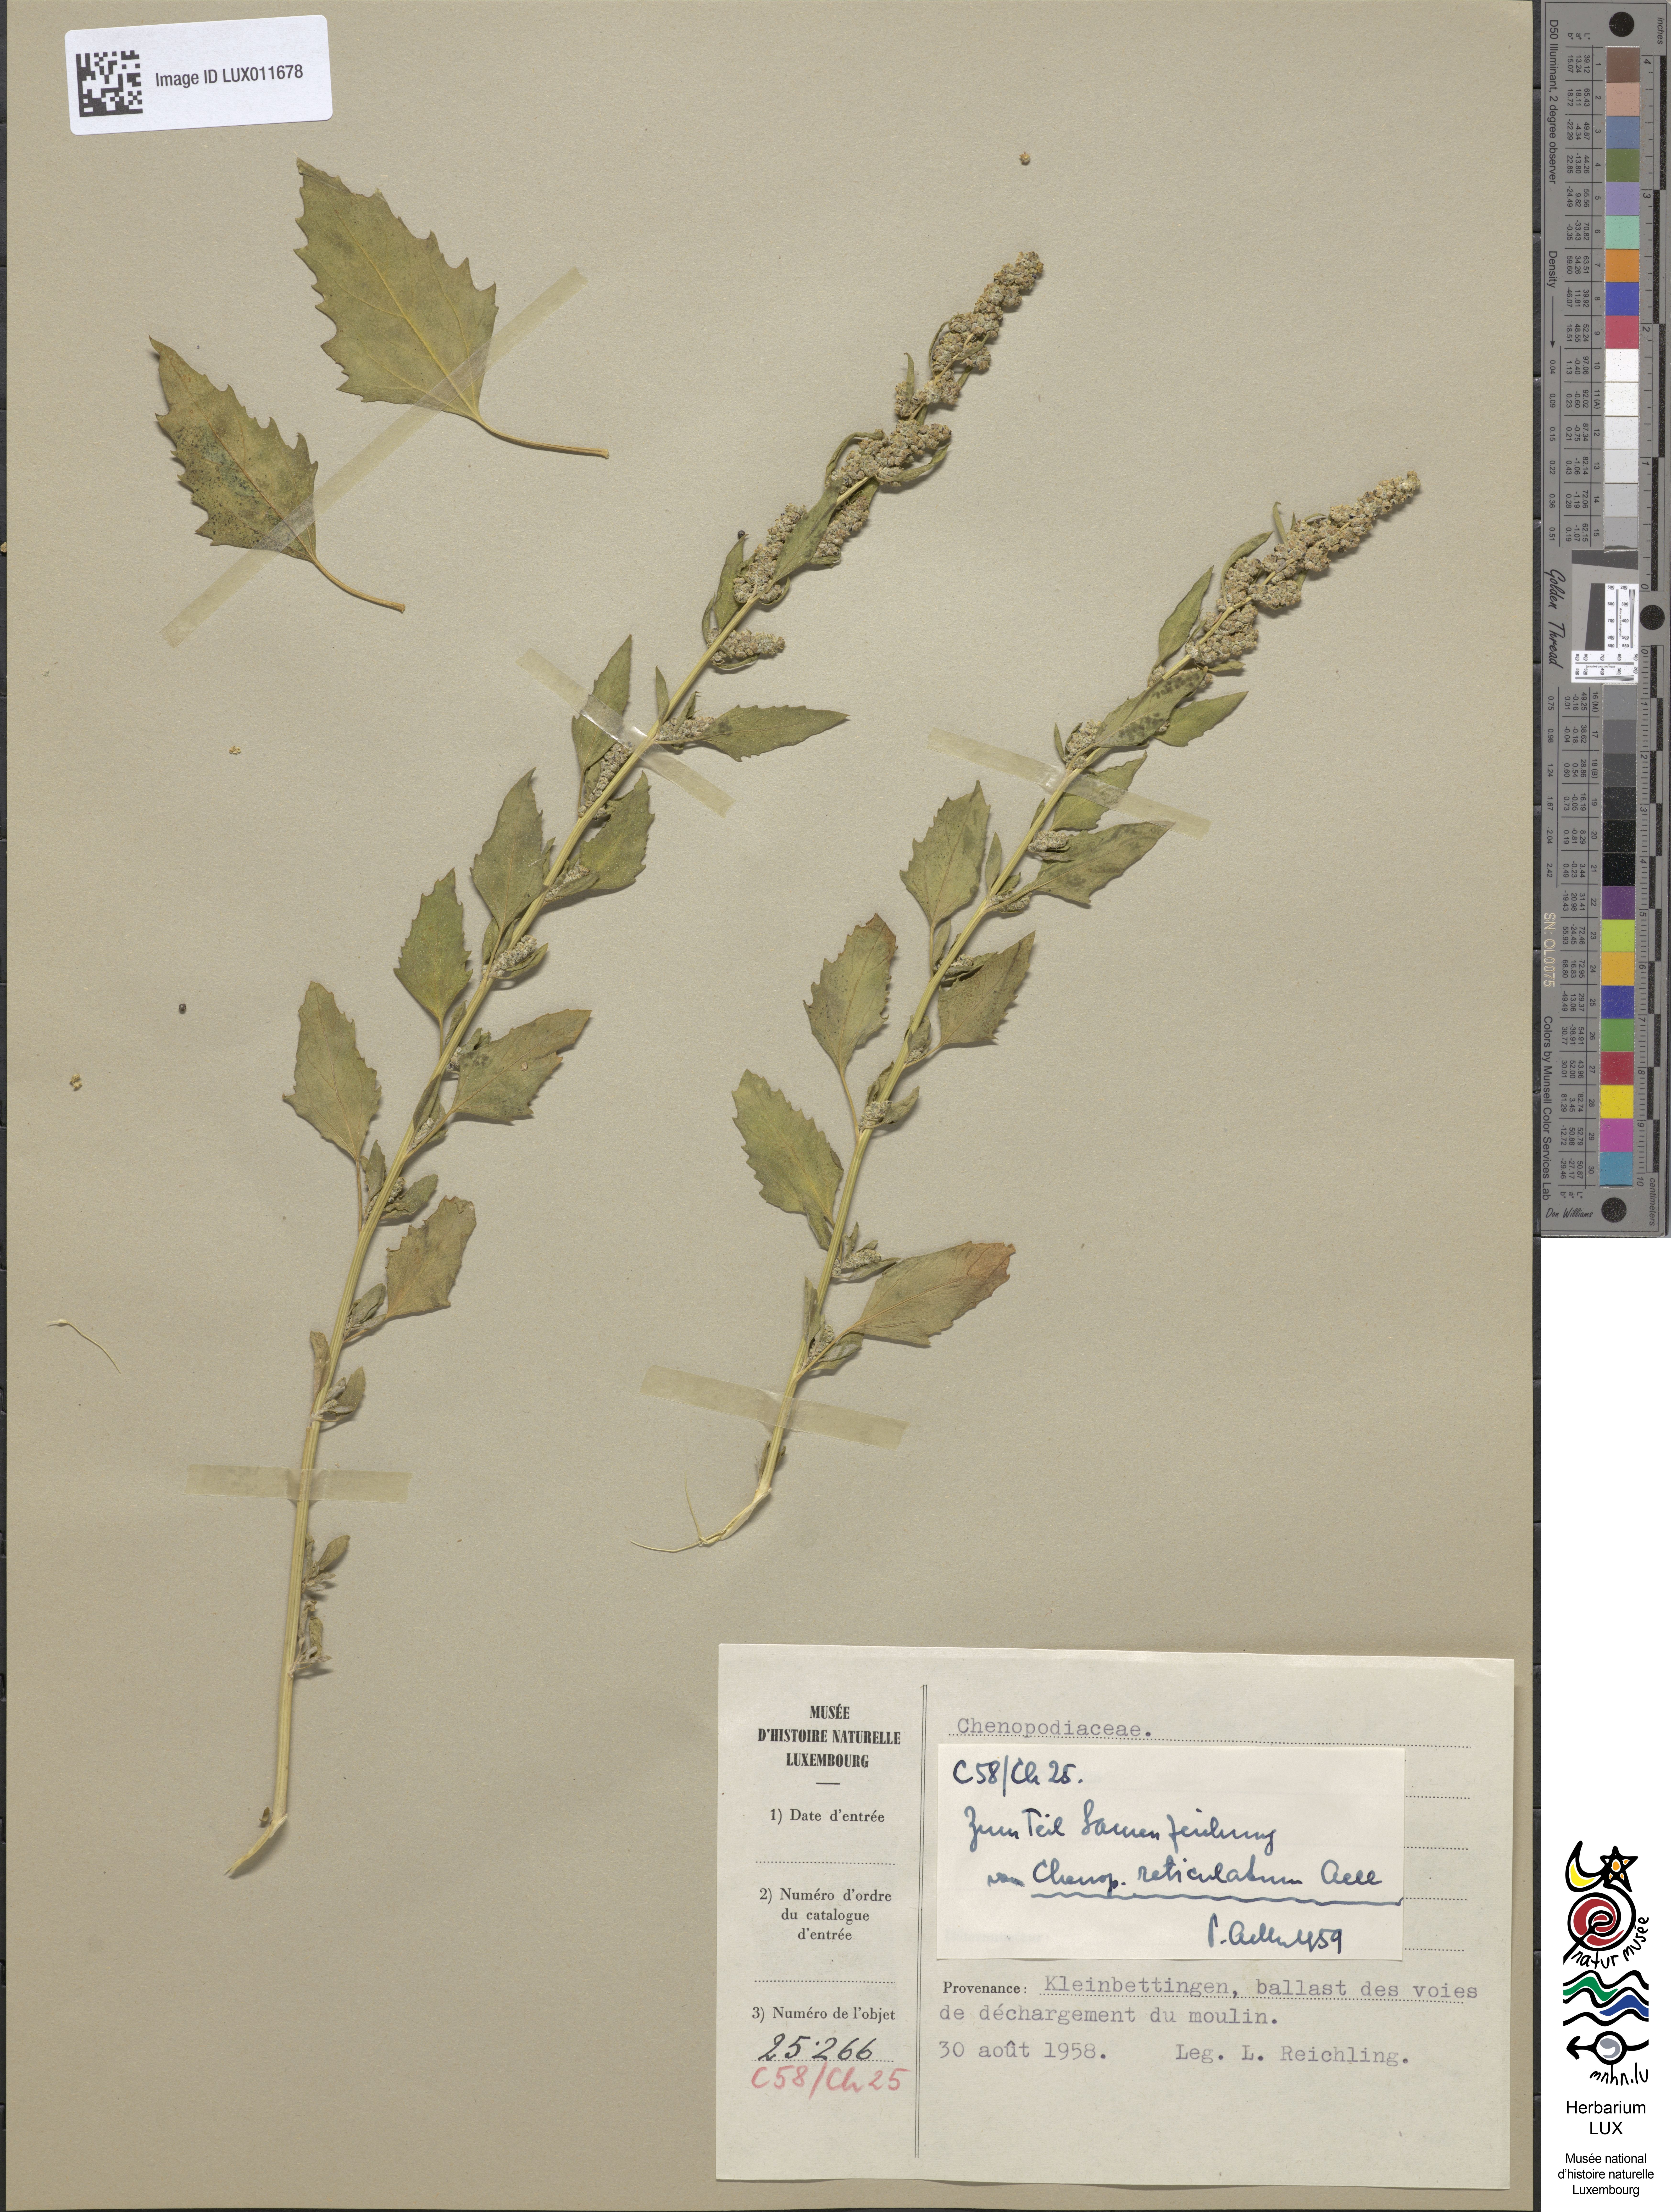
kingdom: Plantae
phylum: Tracheophyta
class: Magnoliopsida
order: Caryophyllales
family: Amaranthaceae
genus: Chenopodium
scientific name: Chenopodium album
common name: Fat-hen
